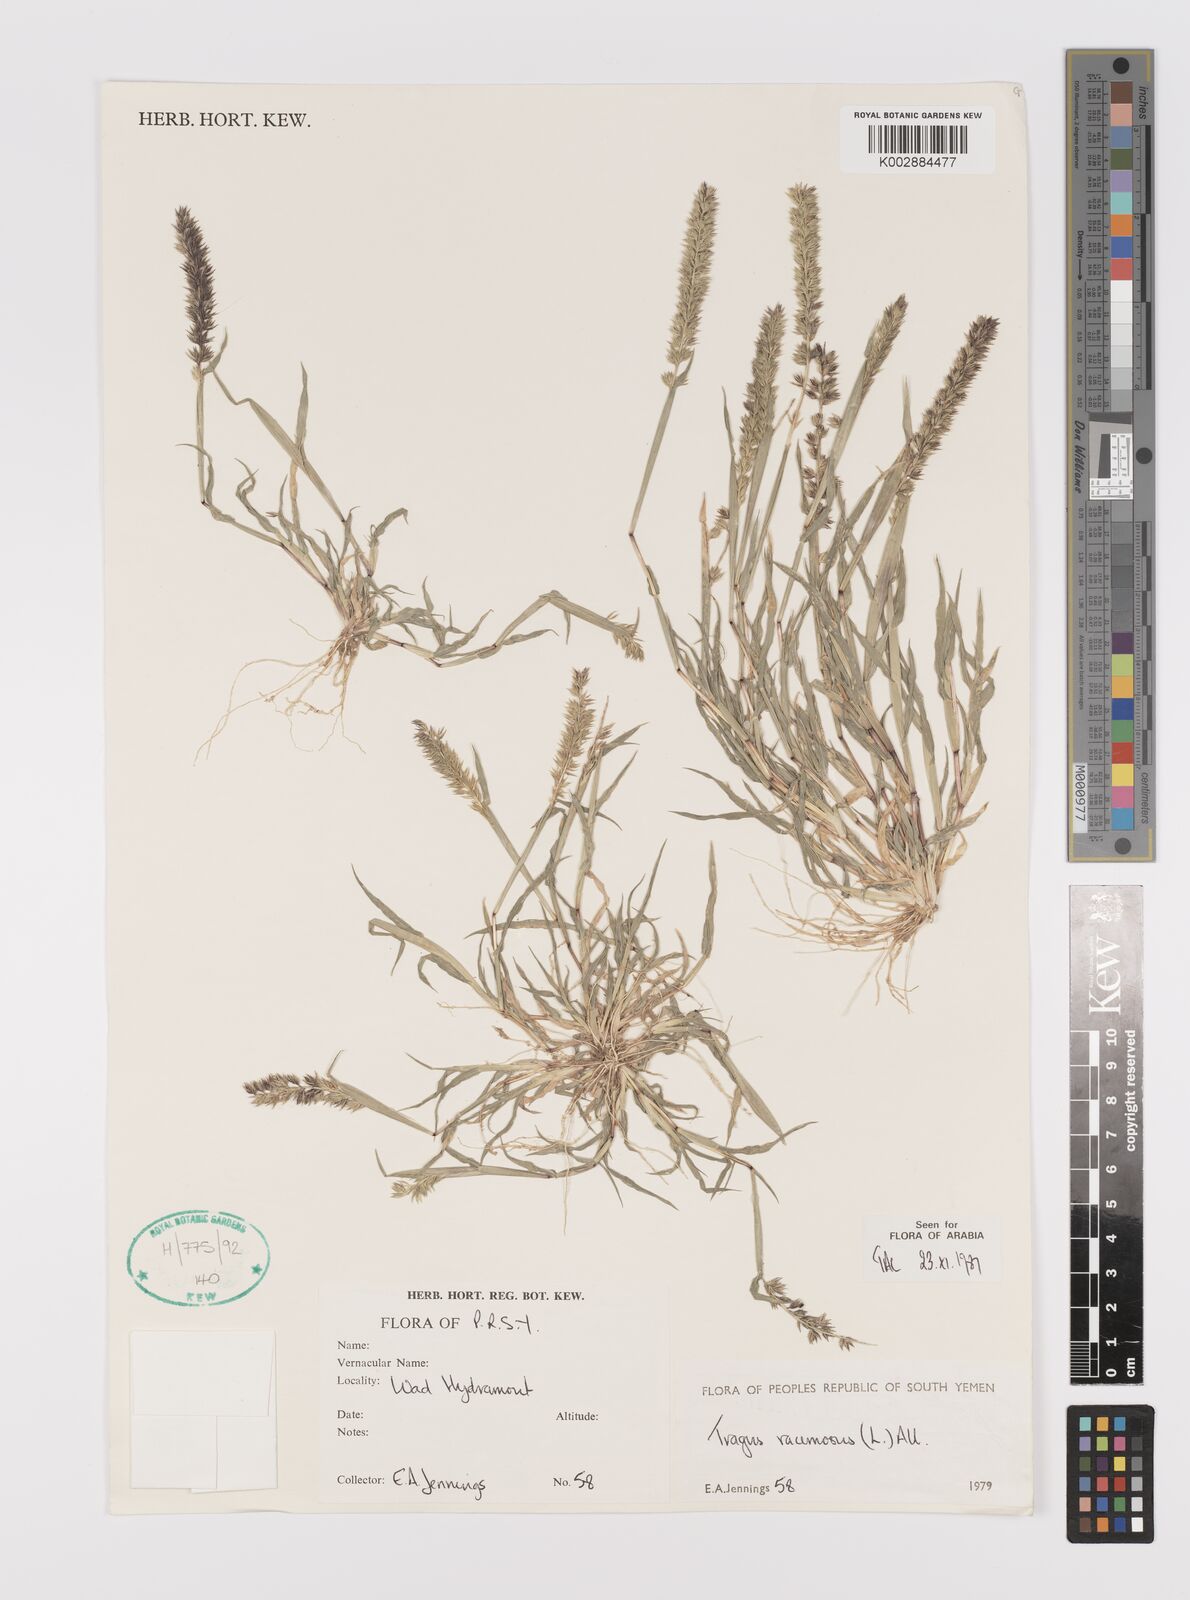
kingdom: Plantae
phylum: Tracheophyta
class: Liliopsida
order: Poales
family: Poaceae
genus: Tragus
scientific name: Tragus racemosus
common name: European bur-grass
